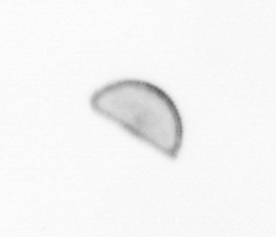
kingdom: Chromista
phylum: Ochrophyta
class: Bacillariophyceae
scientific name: Bacillariophyceae
